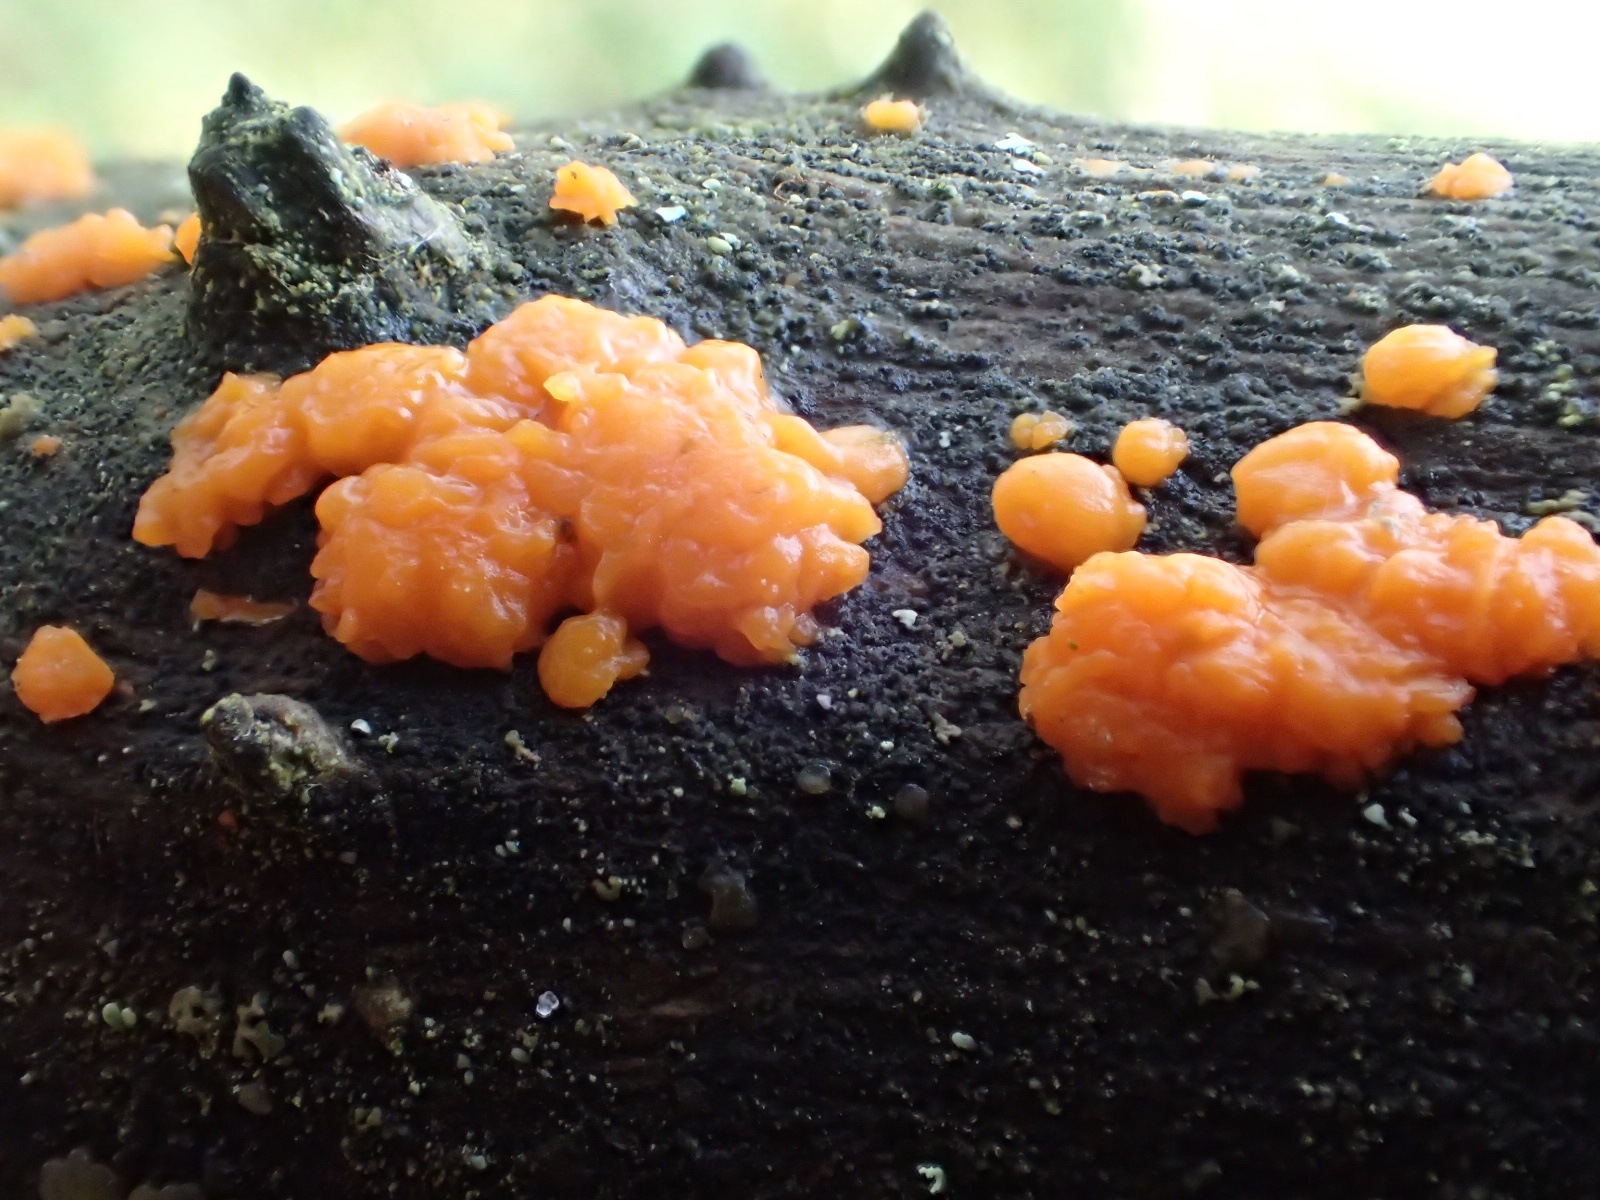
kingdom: Fungi
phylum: Basidiomycota
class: Dacrymycetes
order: Dacrymycetales
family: Dacrymycetaceae
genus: Dacrymyces
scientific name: Dacrymyces stillatus
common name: almindelig tåresvamp
